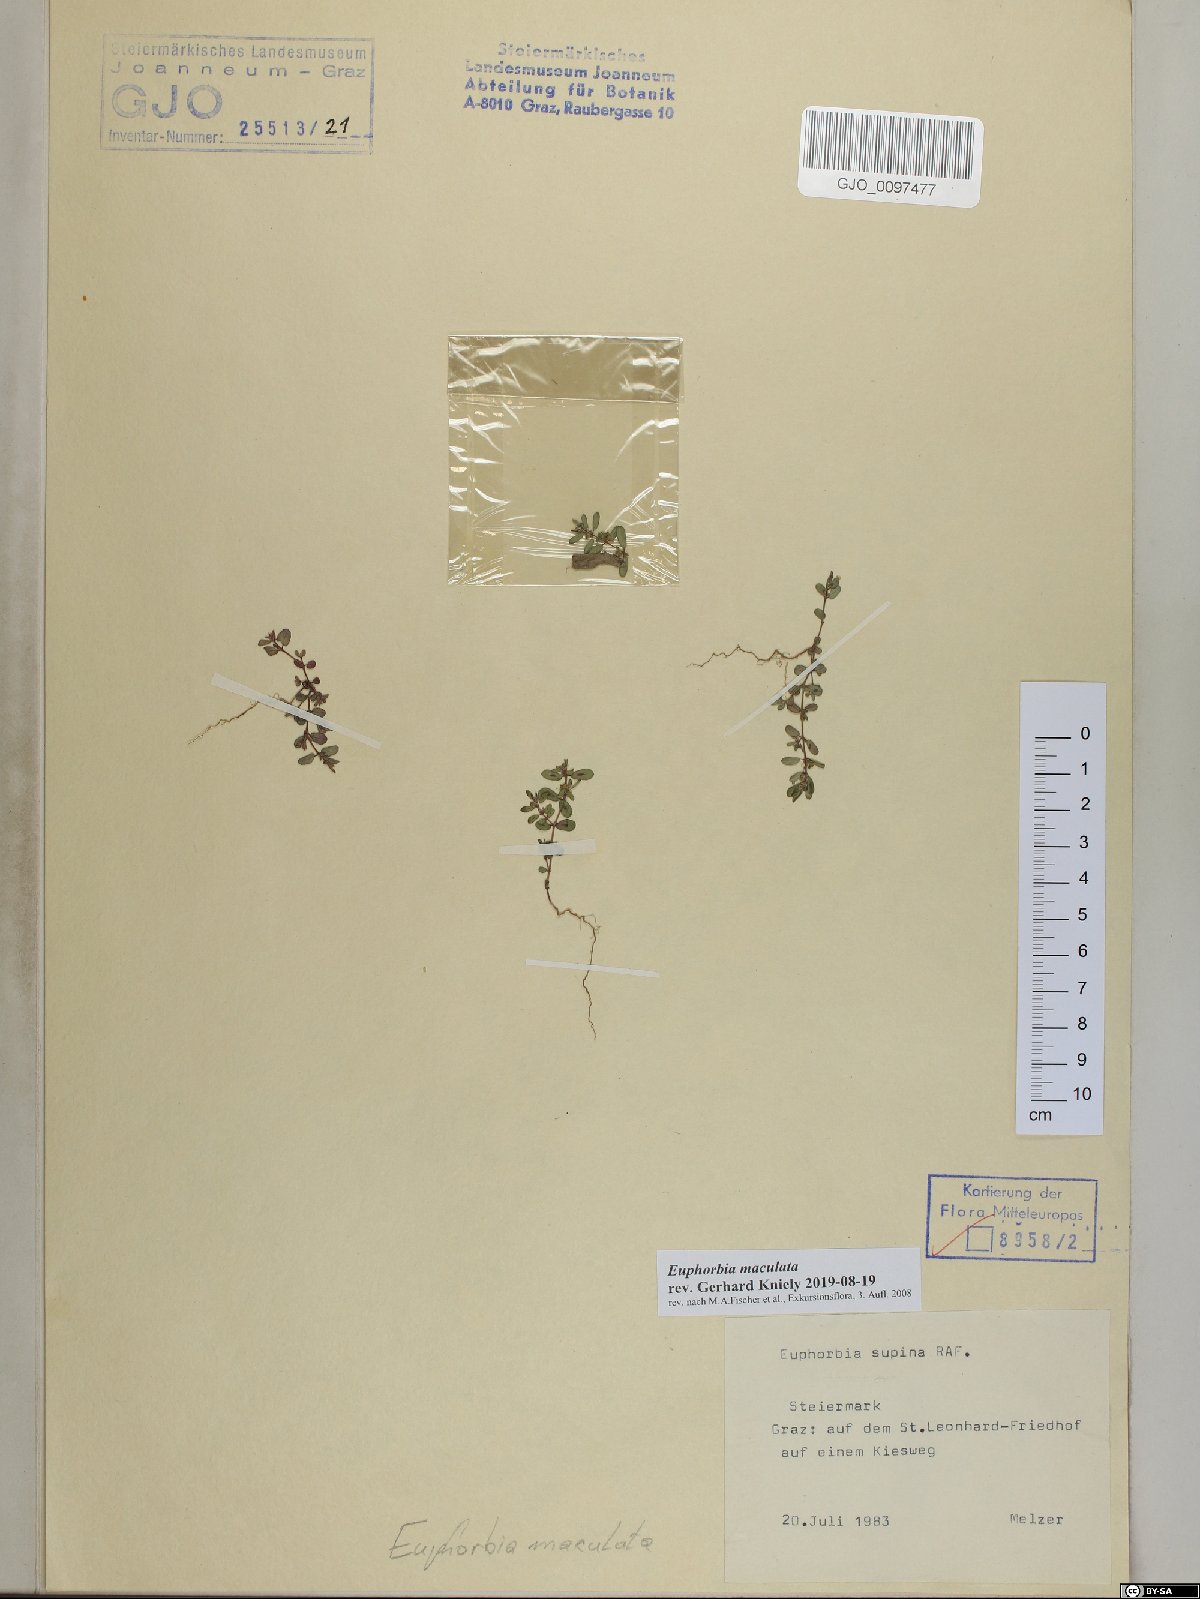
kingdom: Plantae
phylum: Tracheophyta
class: Magnoliopsida
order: Malpighiales
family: Euphorbiaceae
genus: Euphorbia
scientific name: Euphorbia maculata
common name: Spotted spurge
